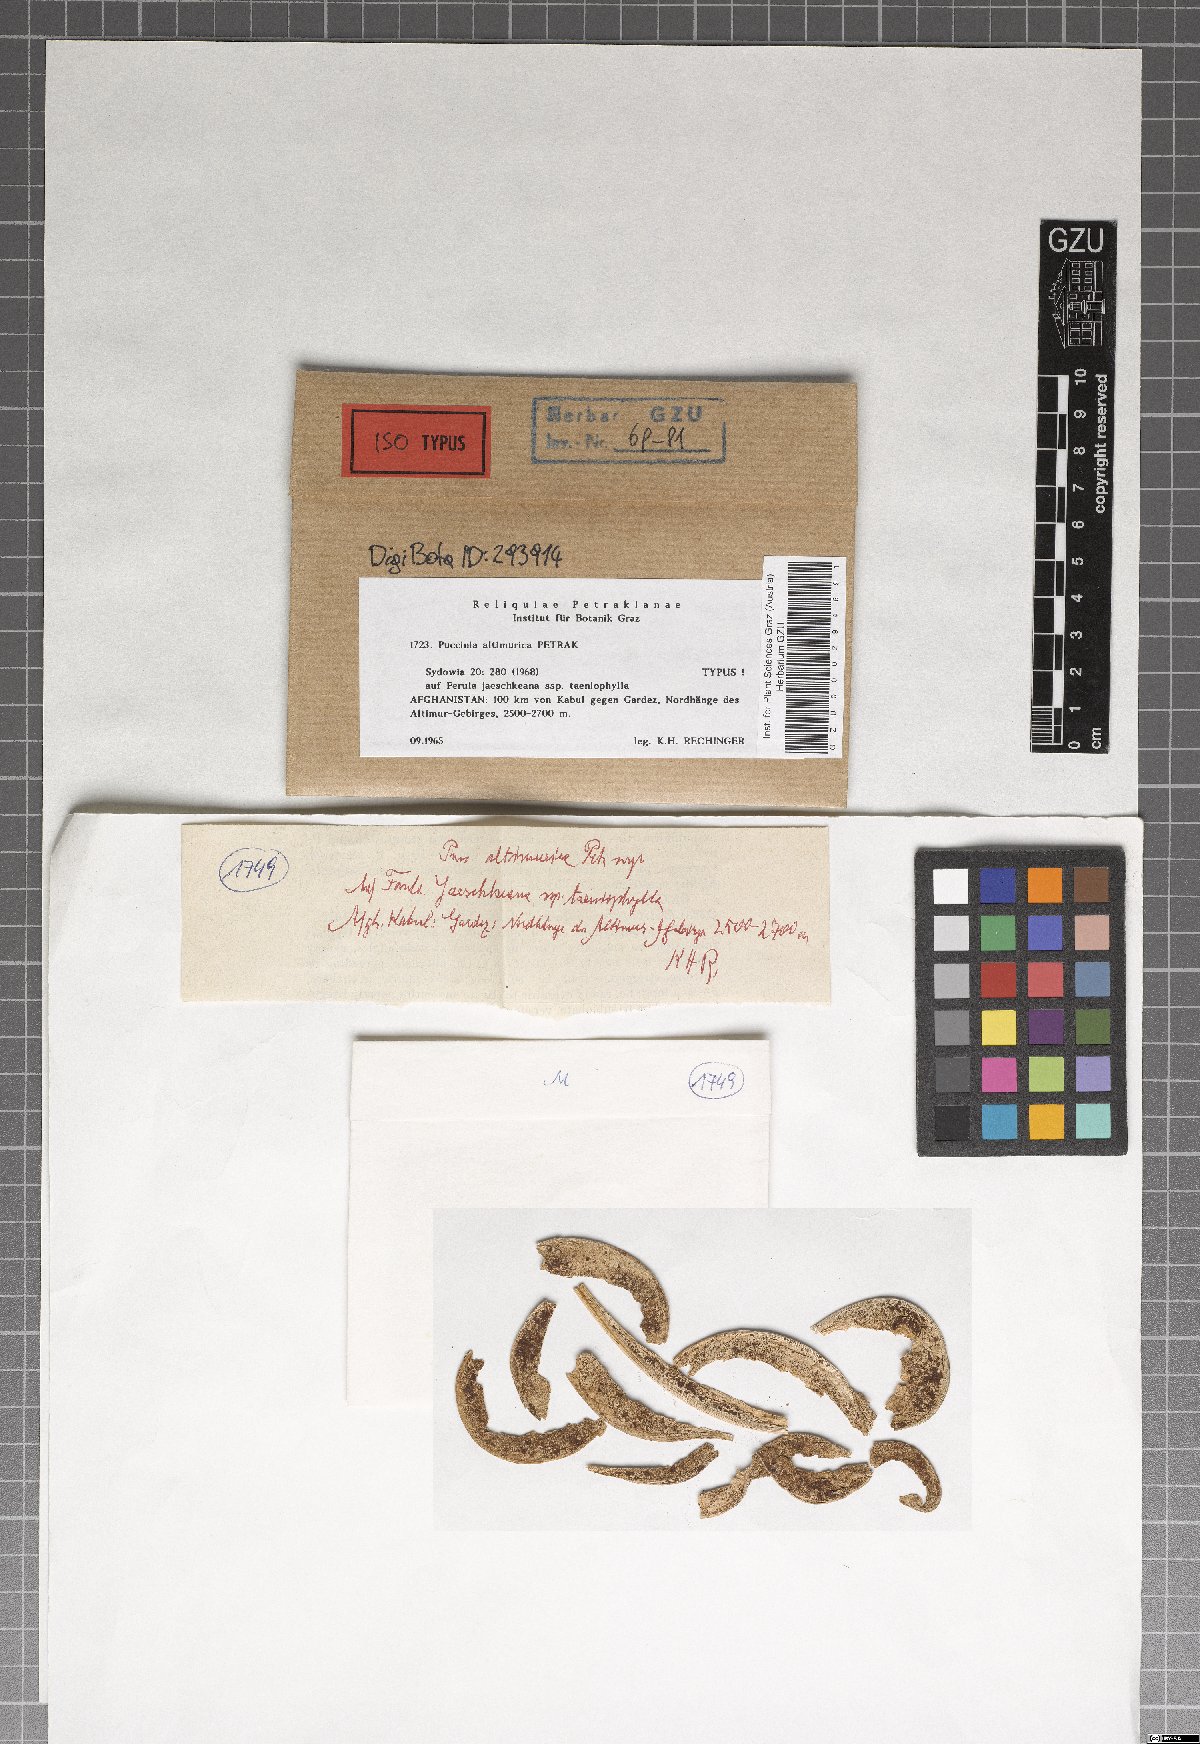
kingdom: Fungi
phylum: Basidiomycota
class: Pucciniomycetes
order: Pucciniales
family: Pucciniaceae
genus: Puccinia
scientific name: Puccinia altimurica
